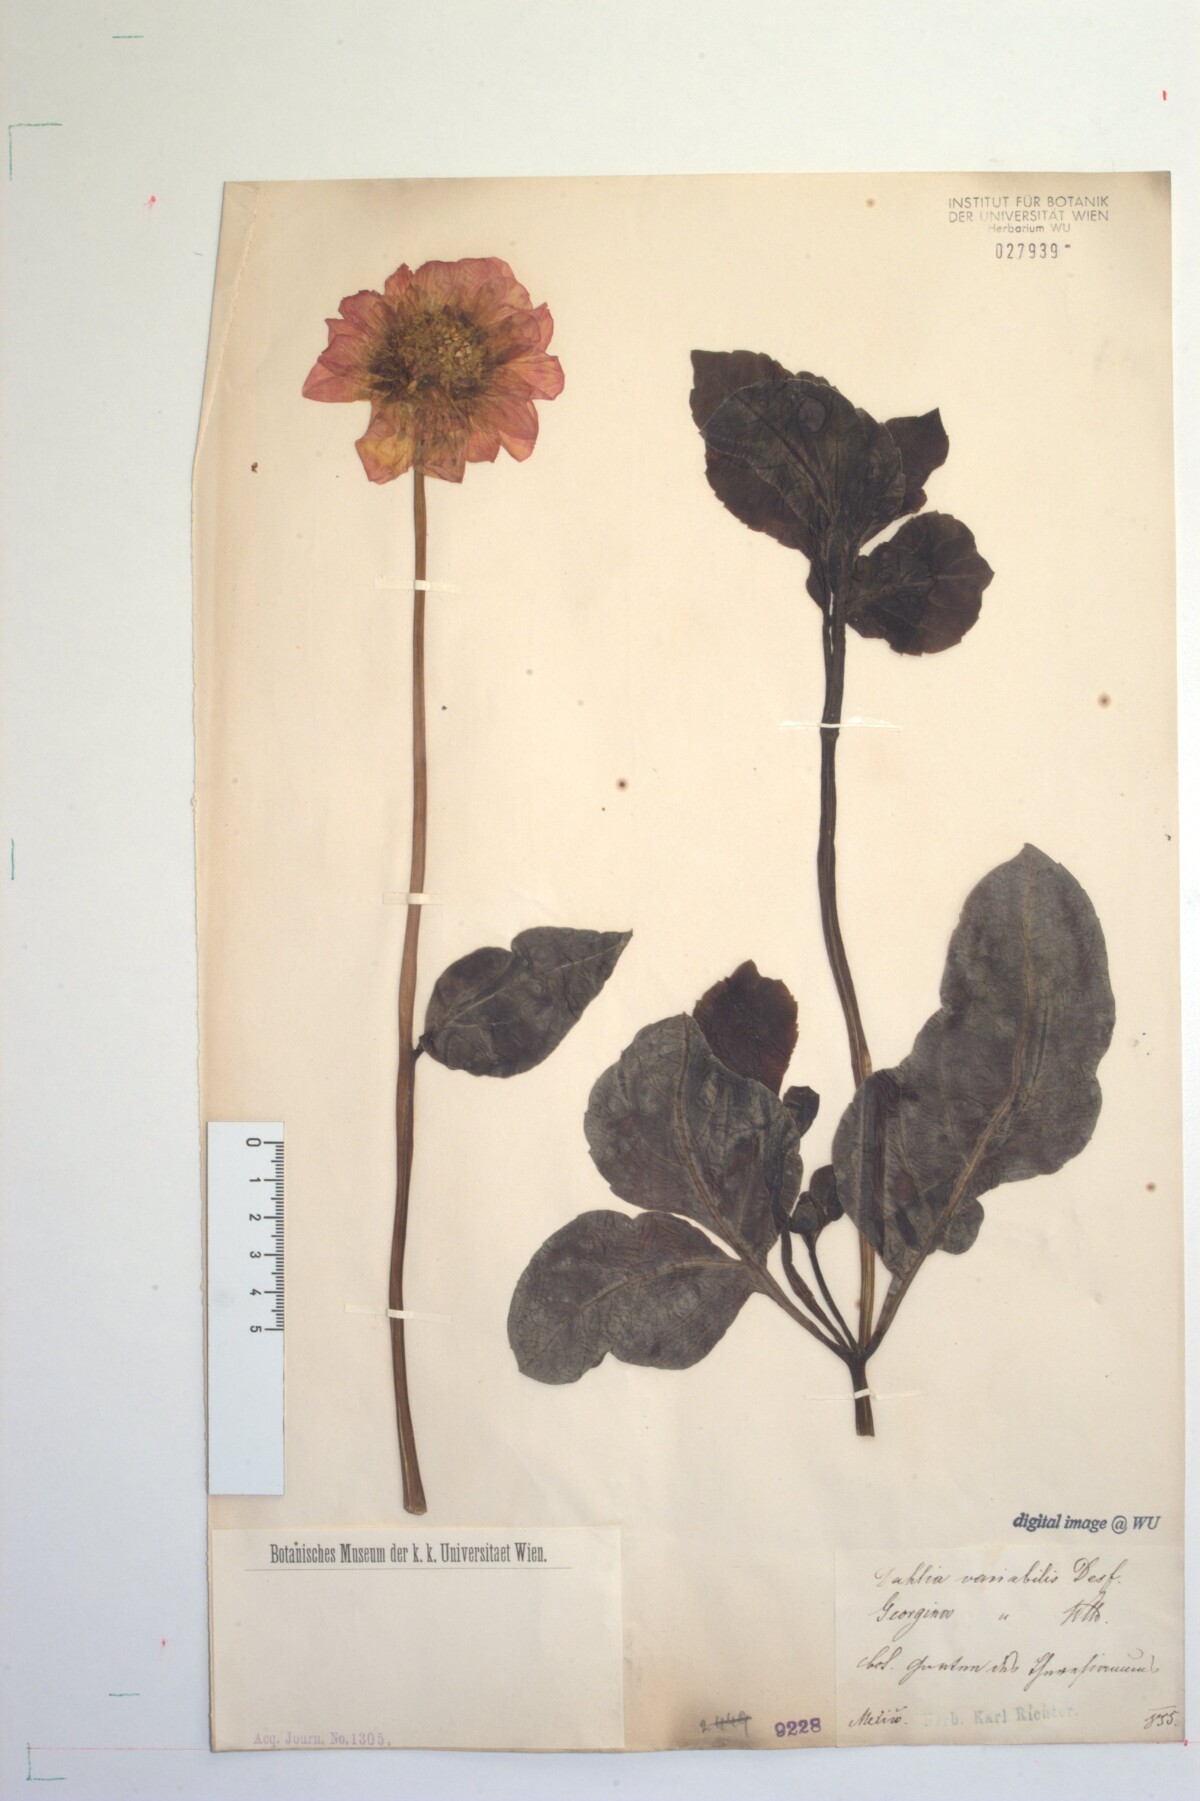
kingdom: Plantae
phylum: Tracheophyta
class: Magnoliopsida
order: Asterales
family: Asteraceae
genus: Dahlia
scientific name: Dahlia pinnata
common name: Dahlia
